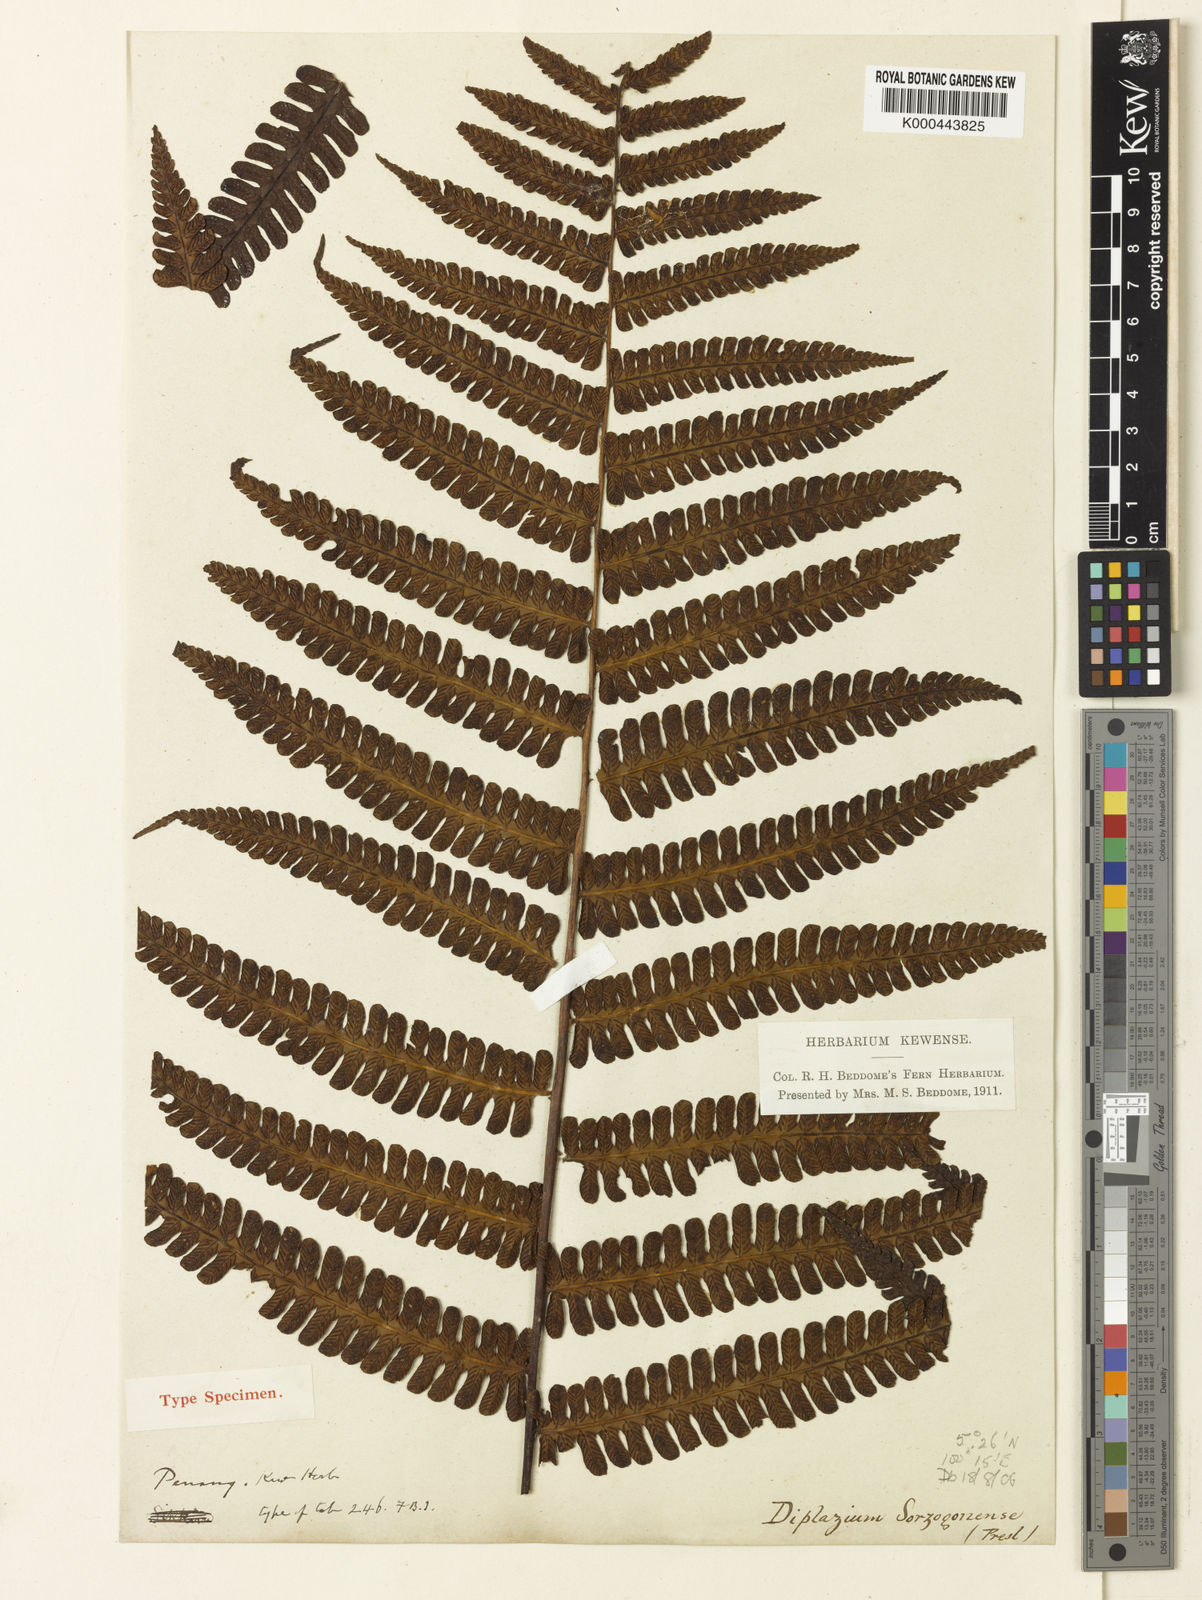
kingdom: Plantae
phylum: Tracheophyta
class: Polypodiopsida
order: Polypodiales
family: Athyriaceae
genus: Diplazium
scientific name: Diplazium sorzogonense
